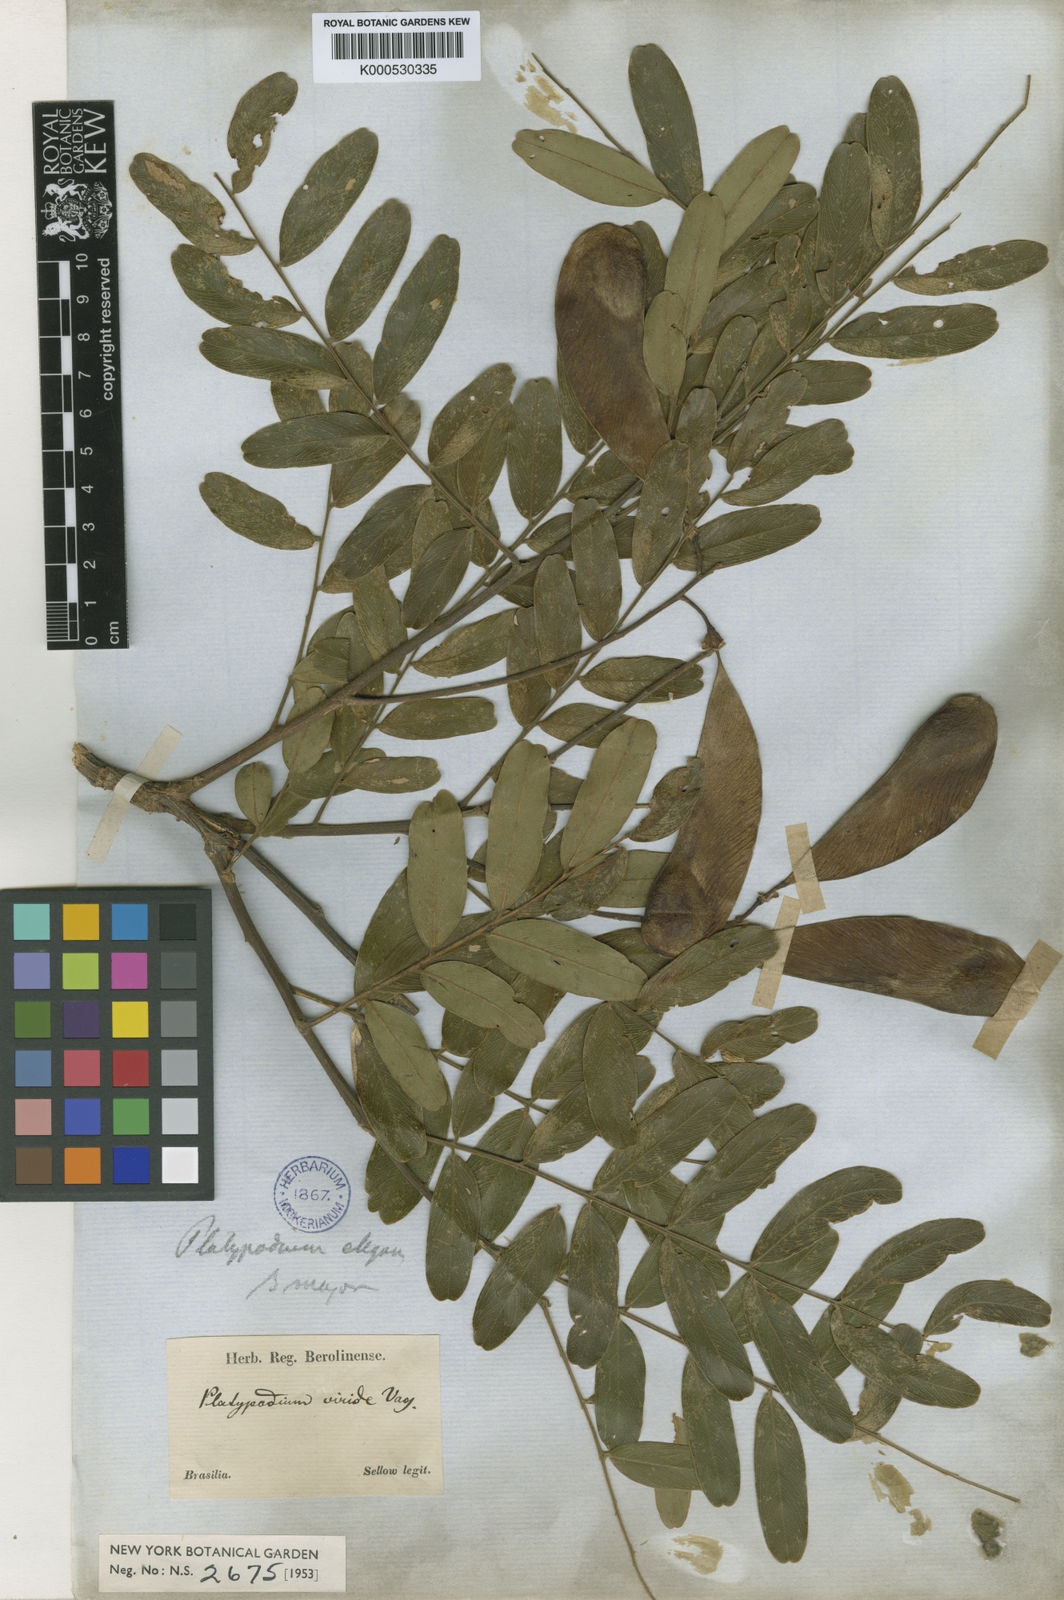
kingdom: Plantae
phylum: Tracheophyta
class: Magnoliopsida
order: Fabales
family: Fabaceae
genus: Platypodium
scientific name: Platypodium elegans
